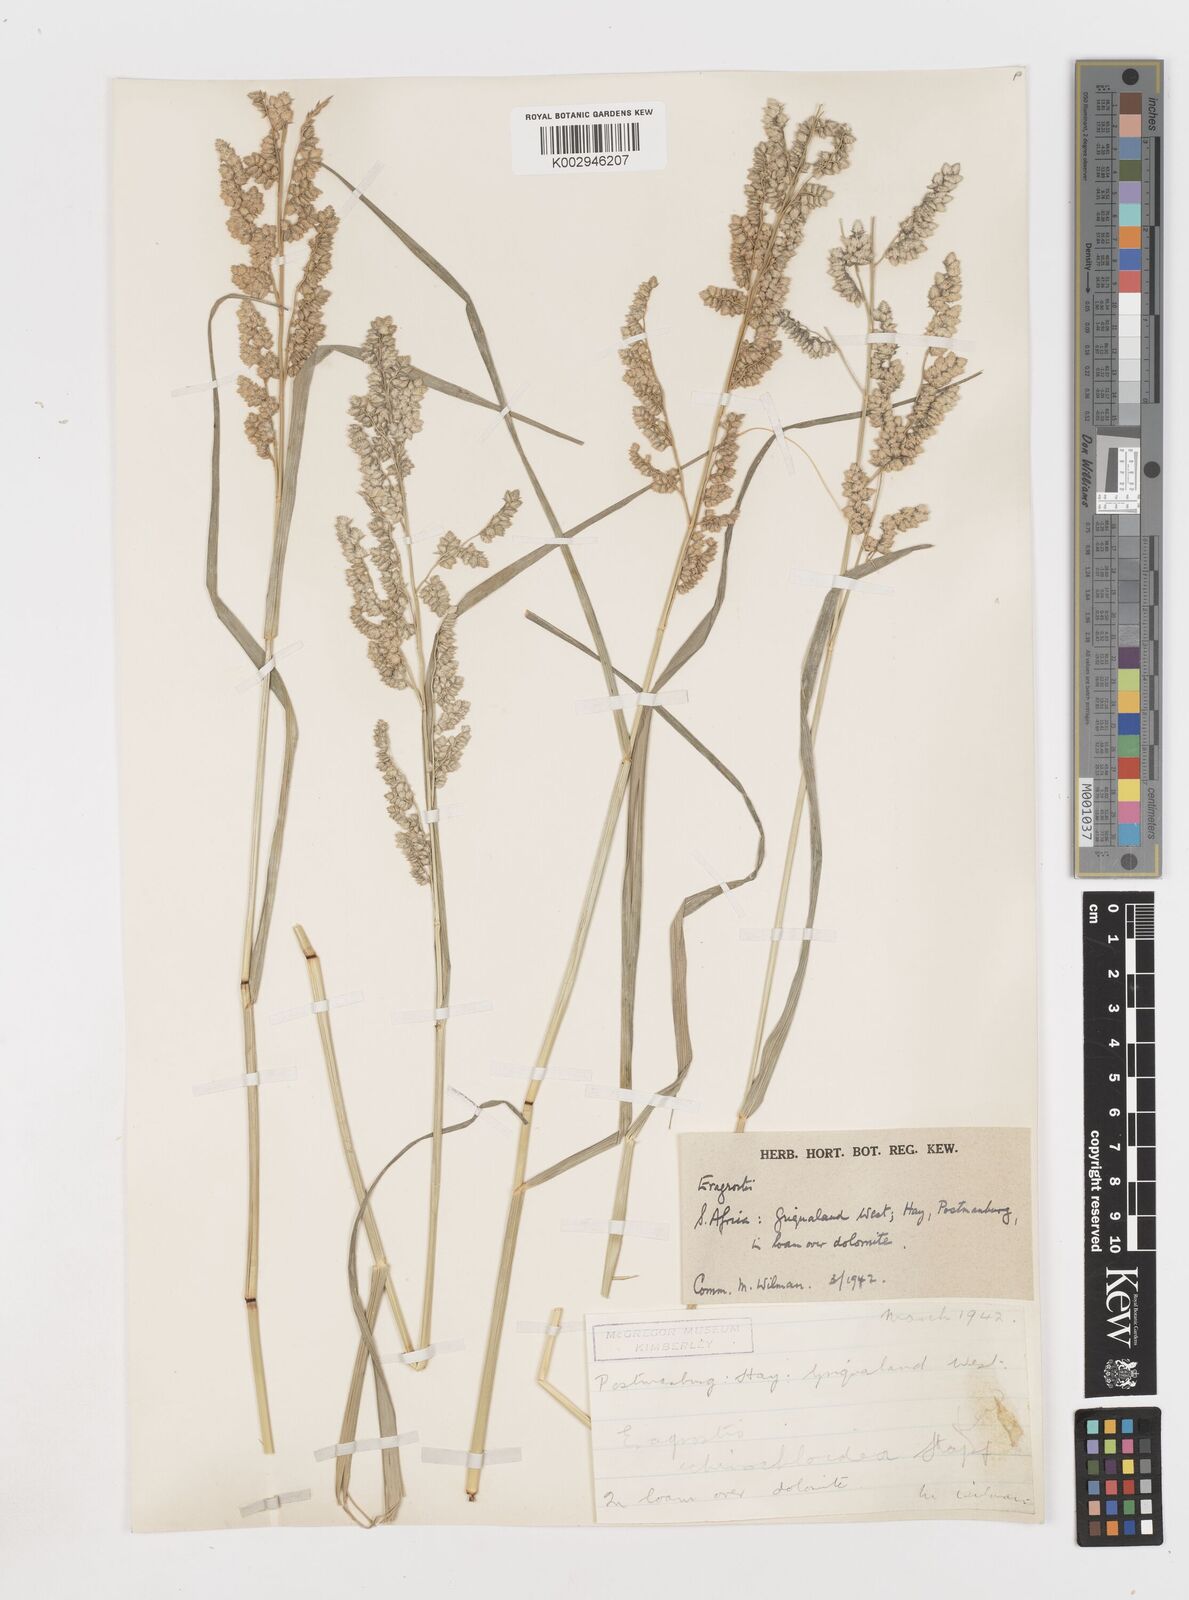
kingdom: Plantae
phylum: Tracheophyta
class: Liliopsida
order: Poales
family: Poaceae
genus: Eragrostis
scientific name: Eragrostis echinochloidea
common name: African lovegrass
